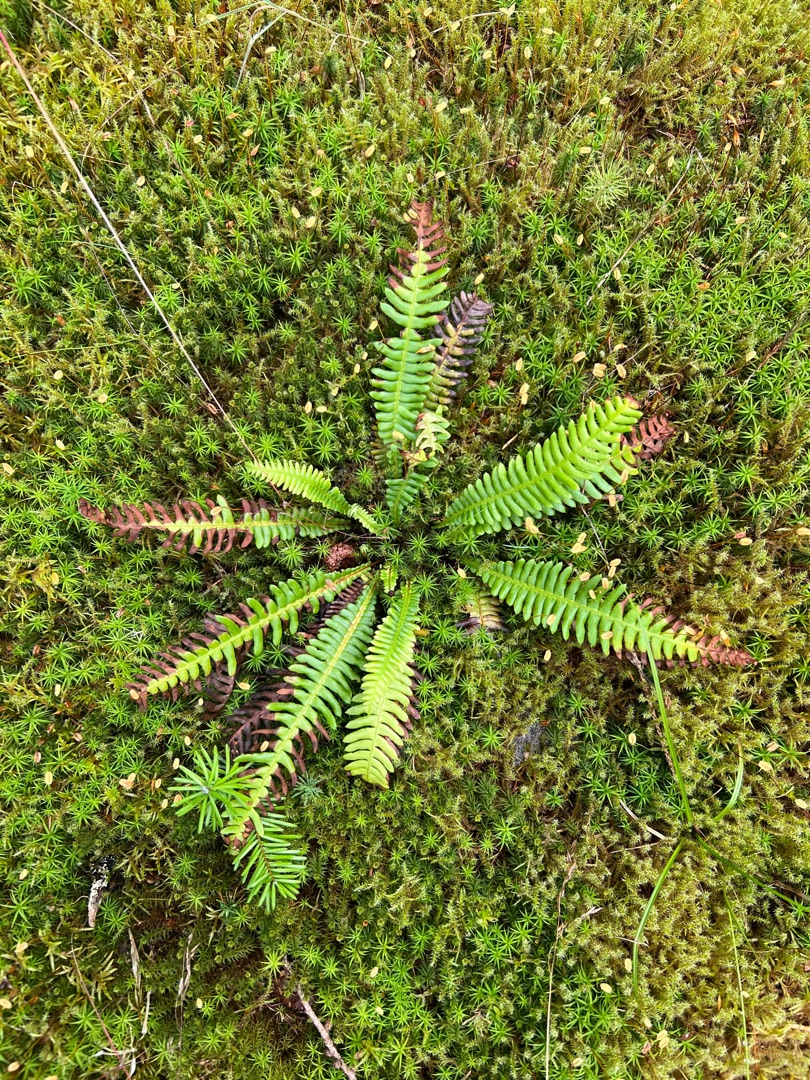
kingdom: Plantae
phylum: Tracheophyta
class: Polypodiopsida
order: Polypodiales
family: Blechnaceae
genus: Struthiopteris
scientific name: Struthiopteris spicant
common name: Kambregne
